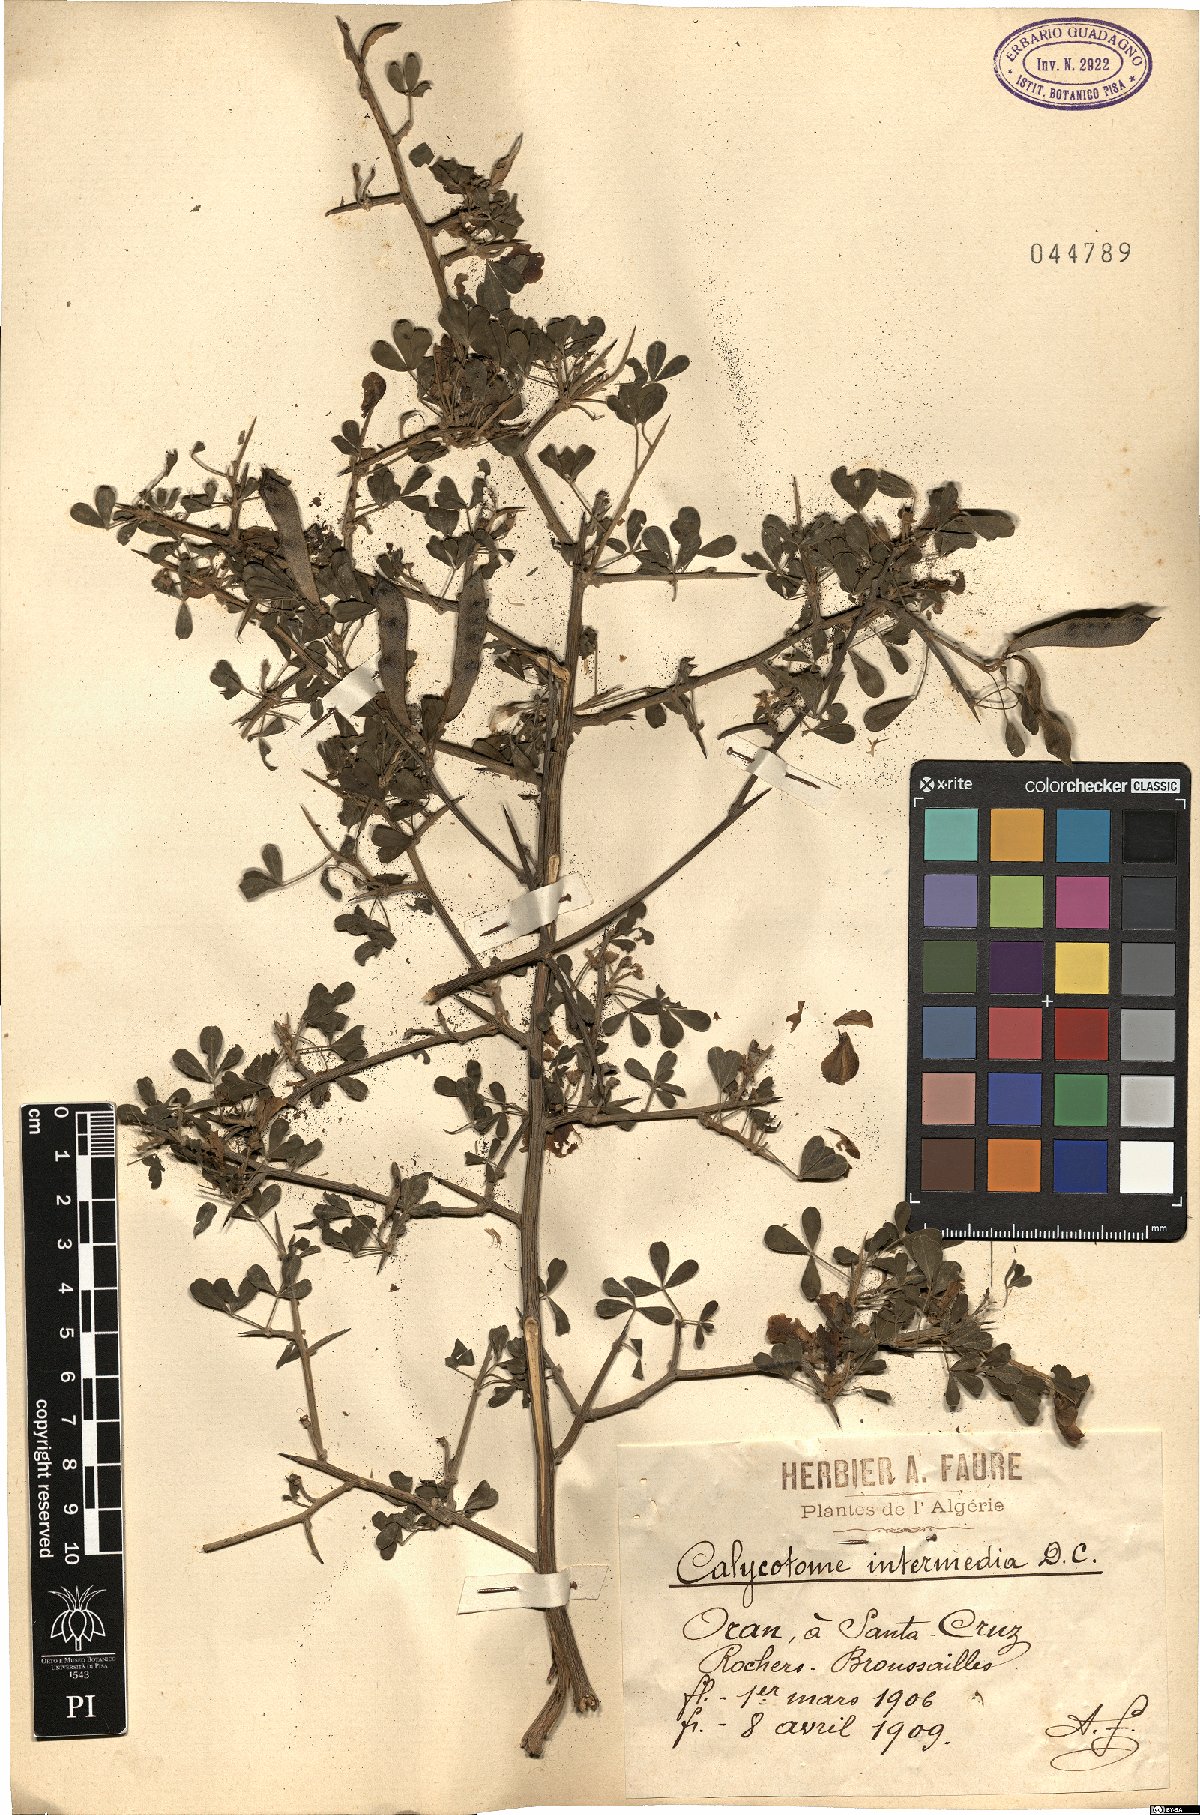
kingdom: Plantae
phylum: Tracheophyta
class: Magnoliopsida
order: Fabales
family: Fabaceae
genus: Calicotome
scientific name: Calicotome infesta
